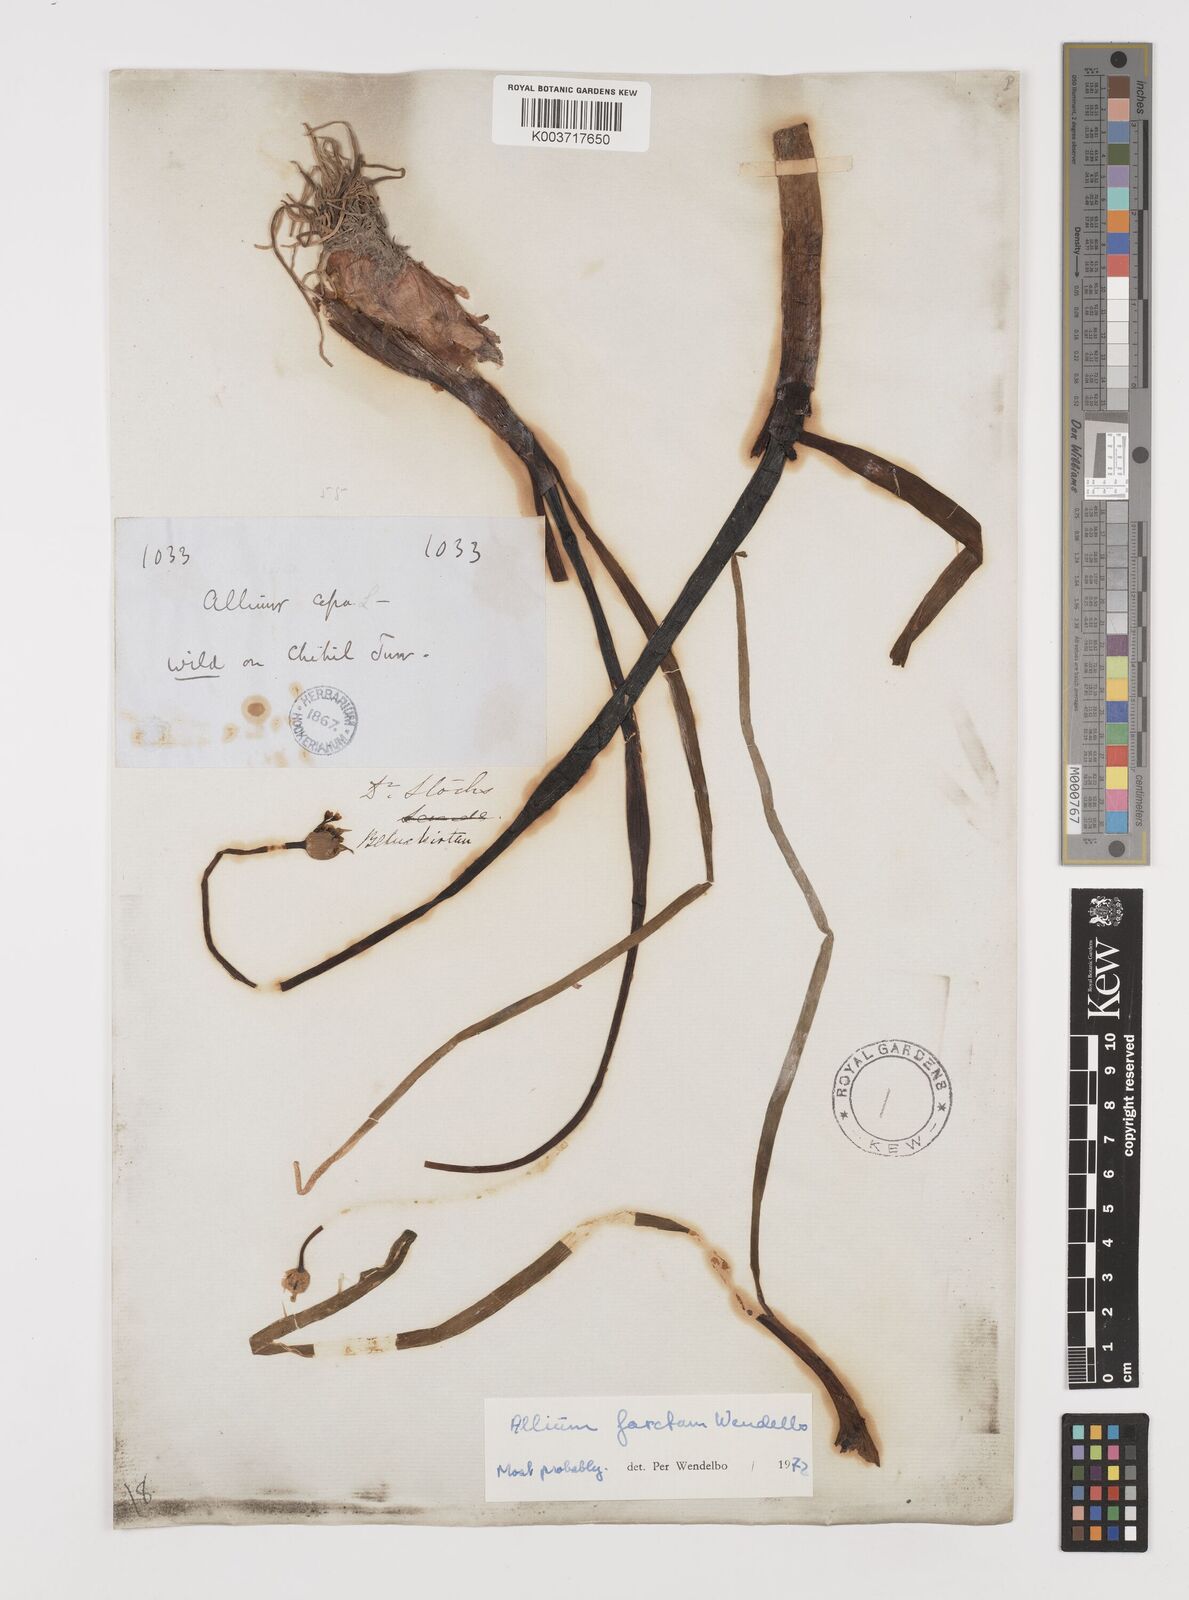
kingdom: Plantae
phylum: Tracheophyta
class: Liliopsida
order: Asparagales
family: Amaryllidaceae
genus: Allium
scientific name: Allium farctum
